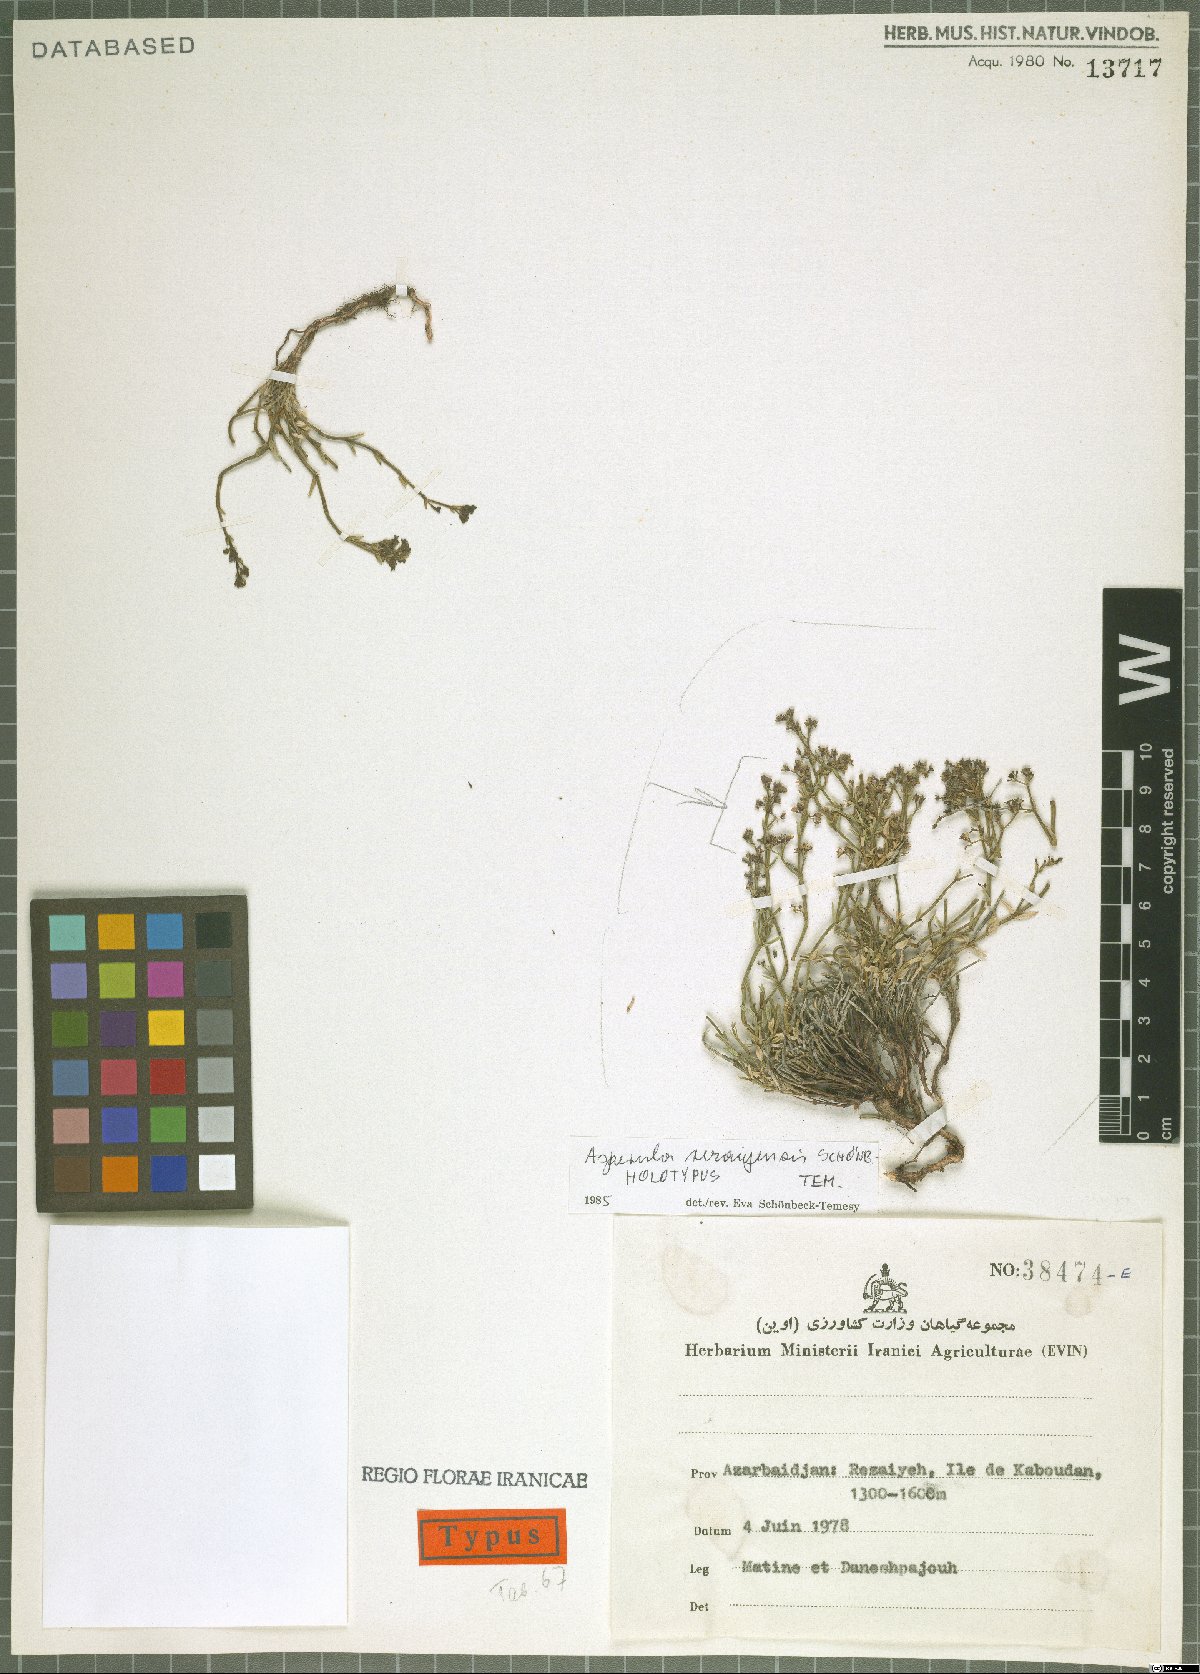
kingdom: Plantae
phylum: Tracheophyta
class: Magnoliopsida
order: Gentianales
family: Rubiaceae
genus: Asperula
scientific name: Asperula rezaiyensis
